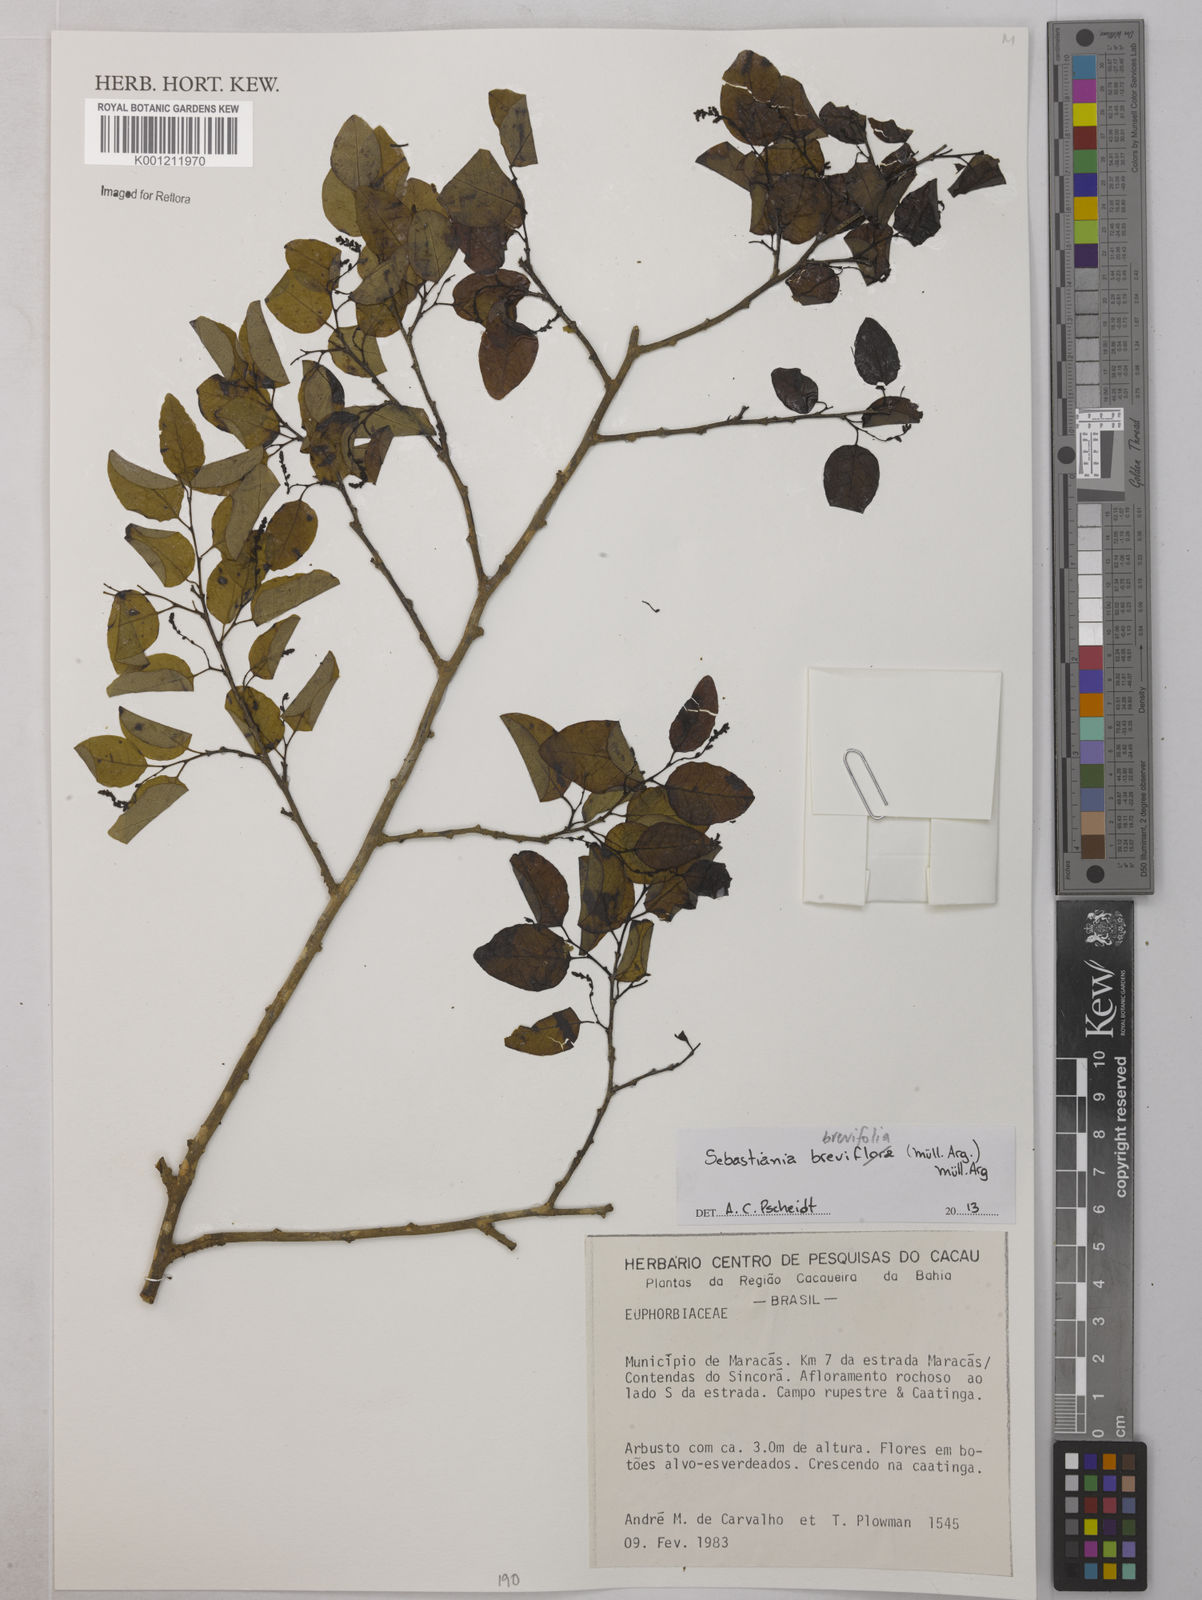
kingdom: Plantae
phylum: Tracheophyta
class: Magnoliopsida
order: Malpighiales
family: Euphorbiaceae
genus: Sebastiania
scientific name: Sebastiania
